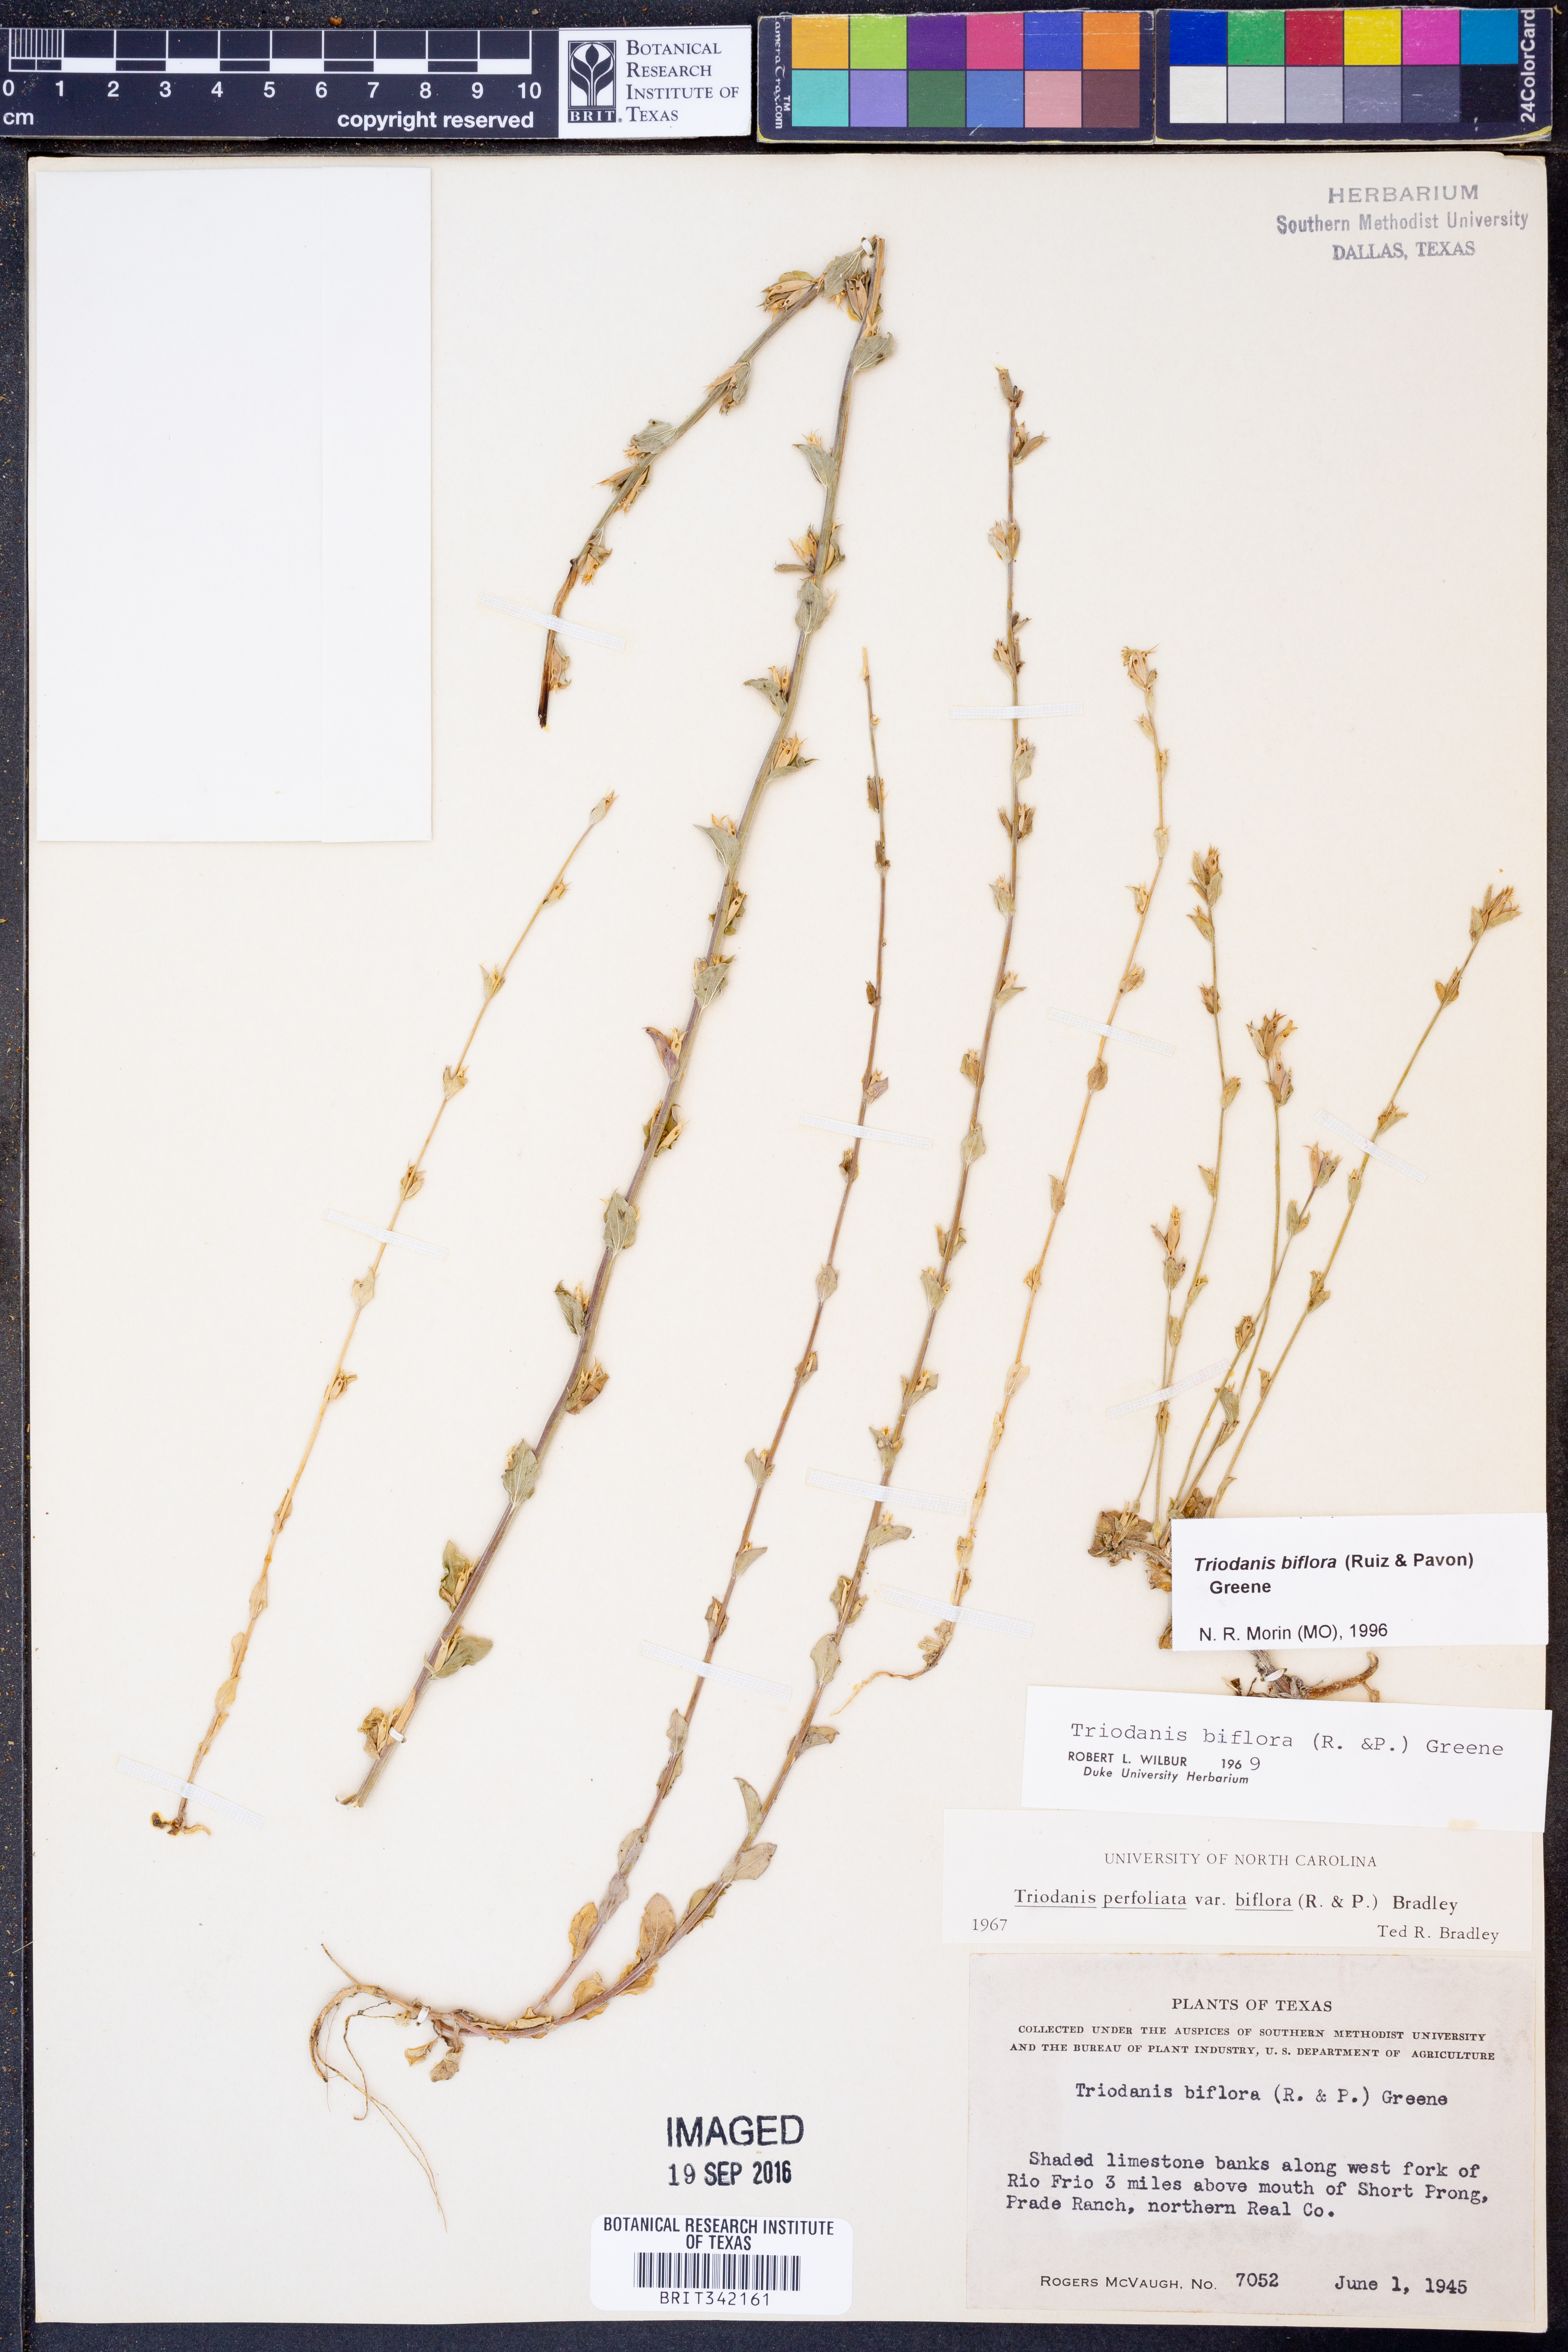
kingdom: Plantae
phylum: Tracheophyta
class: Magnoliopsida
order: Asterales
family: Campanulaceae
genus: Triodanis
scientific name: Triodanis perfoliata
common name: Clasping venus' looking-glass
